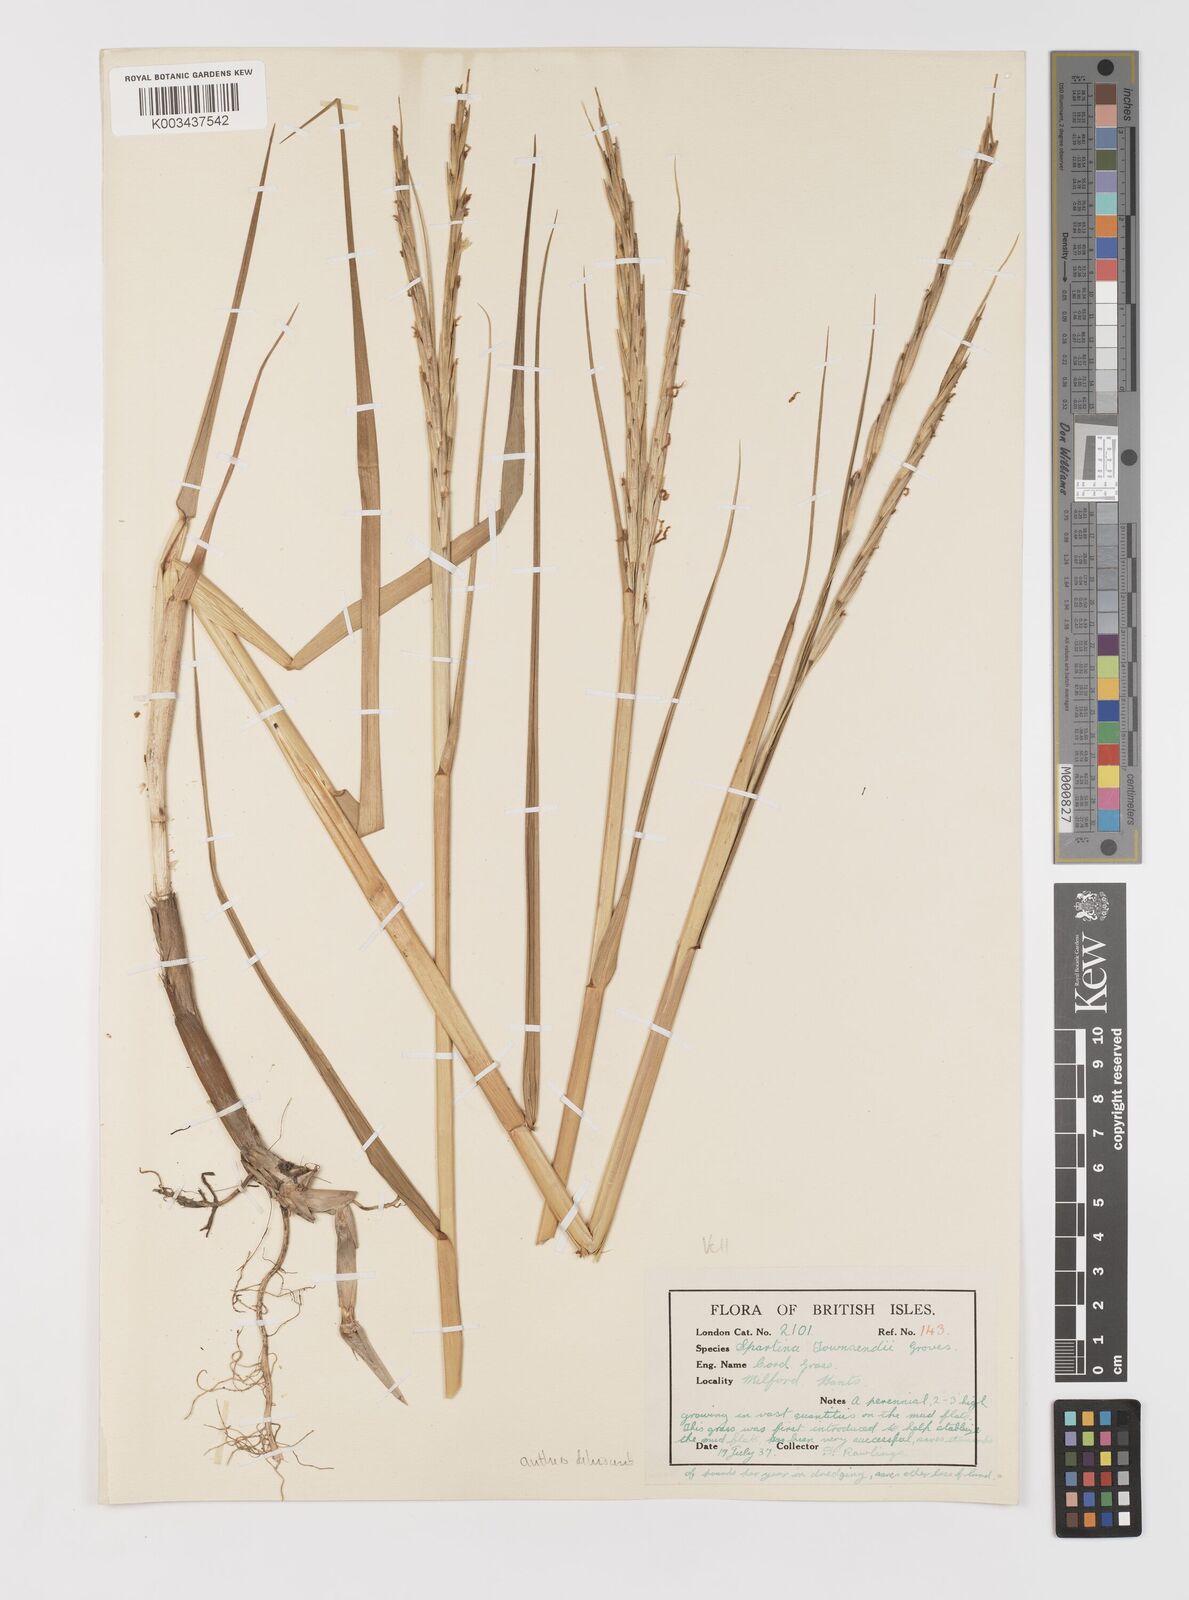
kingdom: Plantae
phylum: Tracheophyta
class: Liliopsida
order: Poales
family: Poaceae
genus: Sporobolus
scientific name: Sporobolus anglicus
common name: English cordgrass
